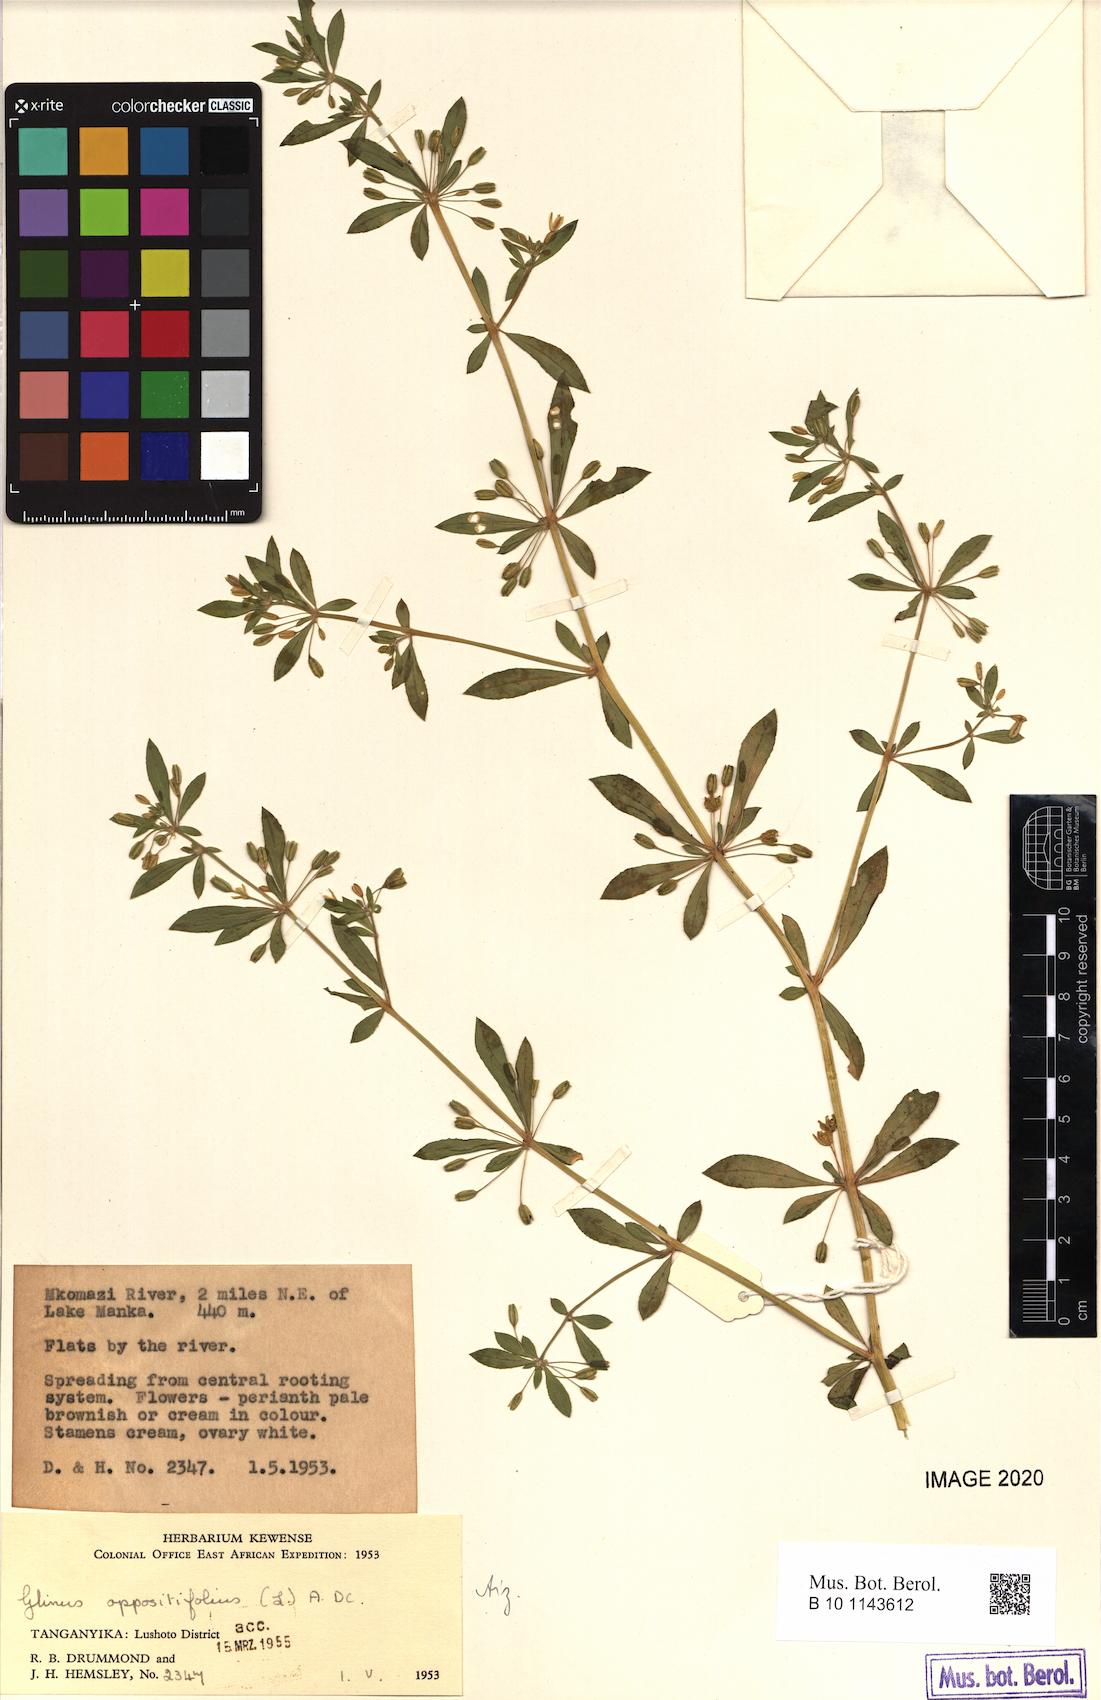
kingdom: Plantae
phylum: Tracheophyta
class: Magnoliopsida
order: Caryophyllales
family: Molluginaceae
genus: Glinus
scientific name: Glinus oppositifolius
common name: Slender carpetweed
